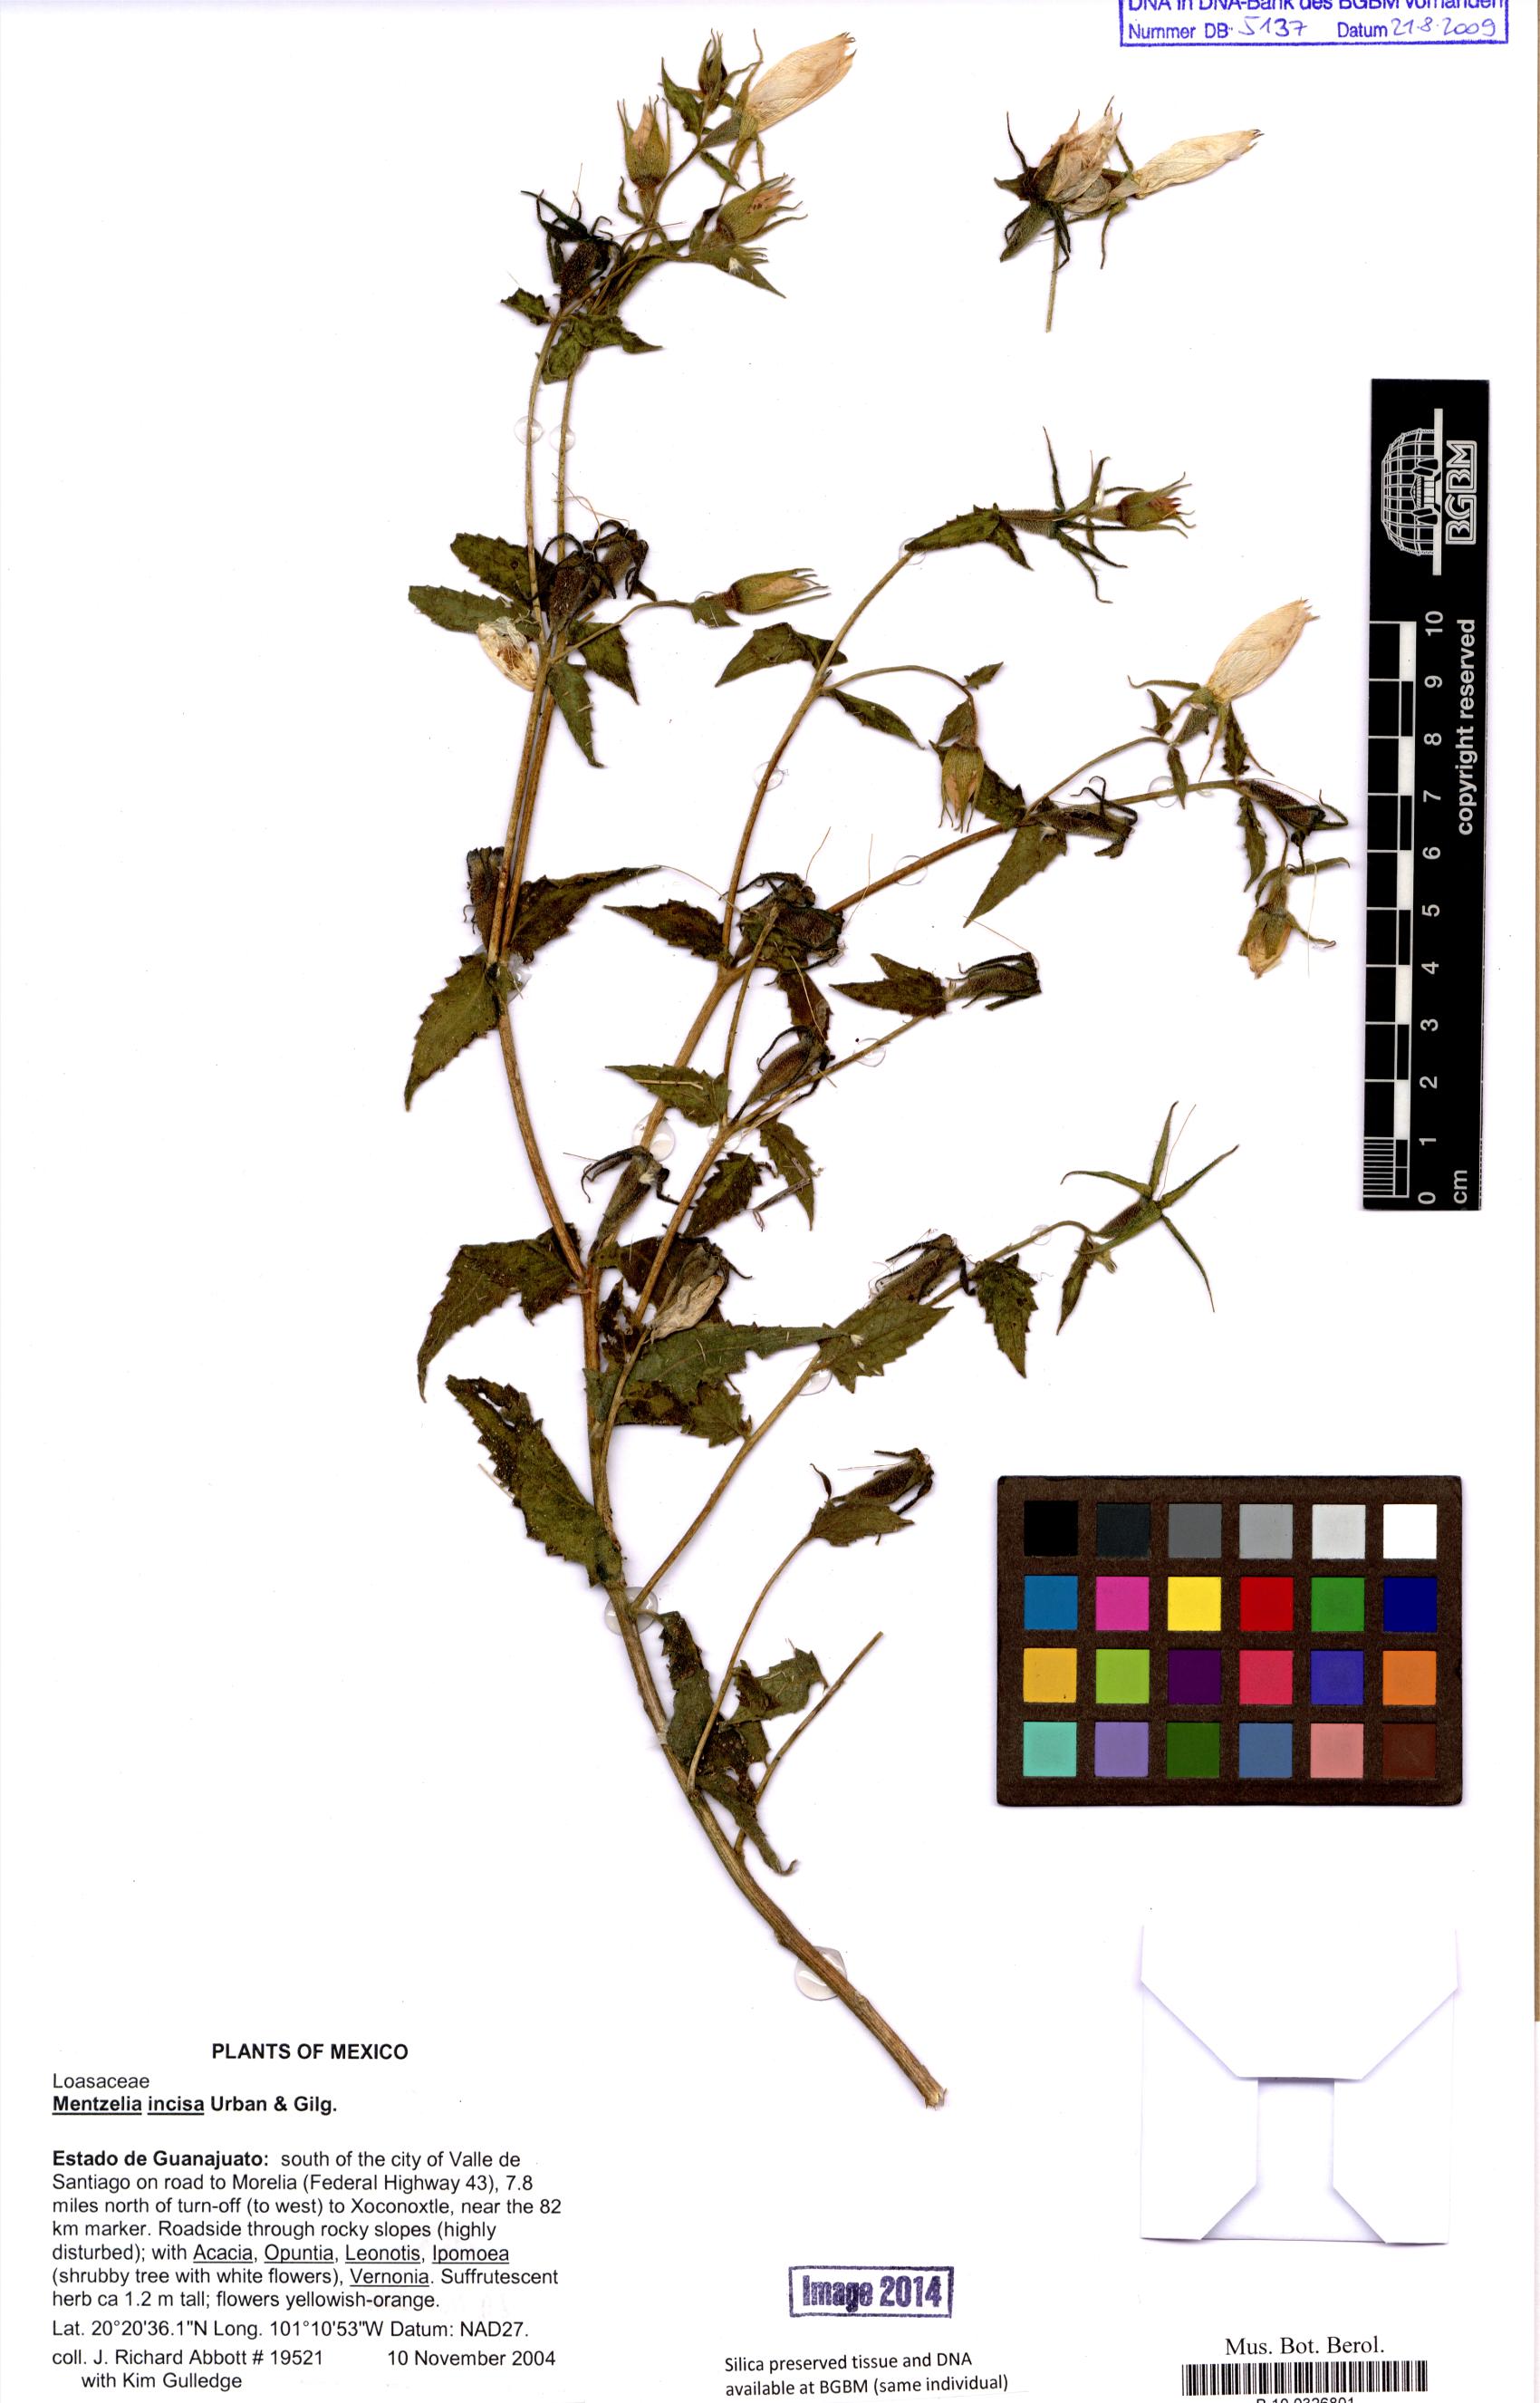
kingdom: Plantae
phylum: Tracheophyta
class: Magnoliopsida
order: Cornales
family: Loasaceae
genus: Mentzelia
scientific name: Mentzelia incisa
